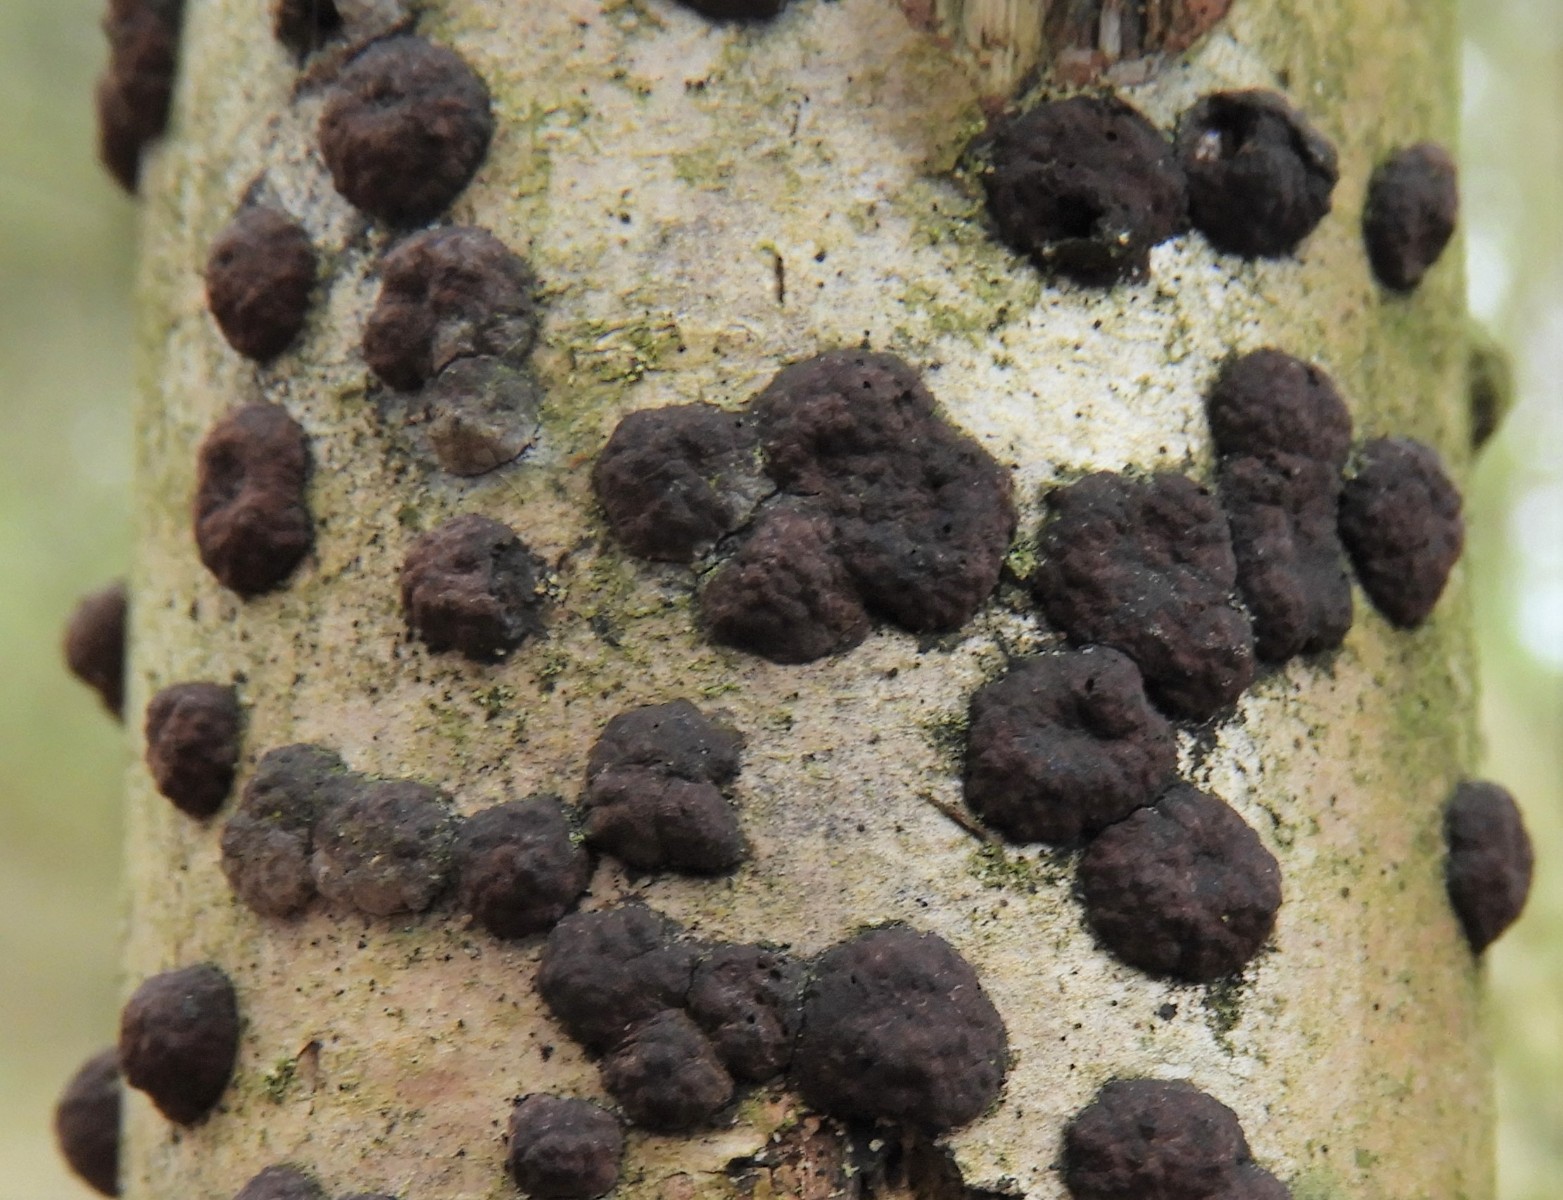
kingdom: Fungi
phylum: Ascomycota
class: Sordariomycetes
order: Xylariales
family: Hypoxylaceae
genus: Hypoxylon
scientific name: Hypoxylon fuscum
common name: kegleformet kulbær
